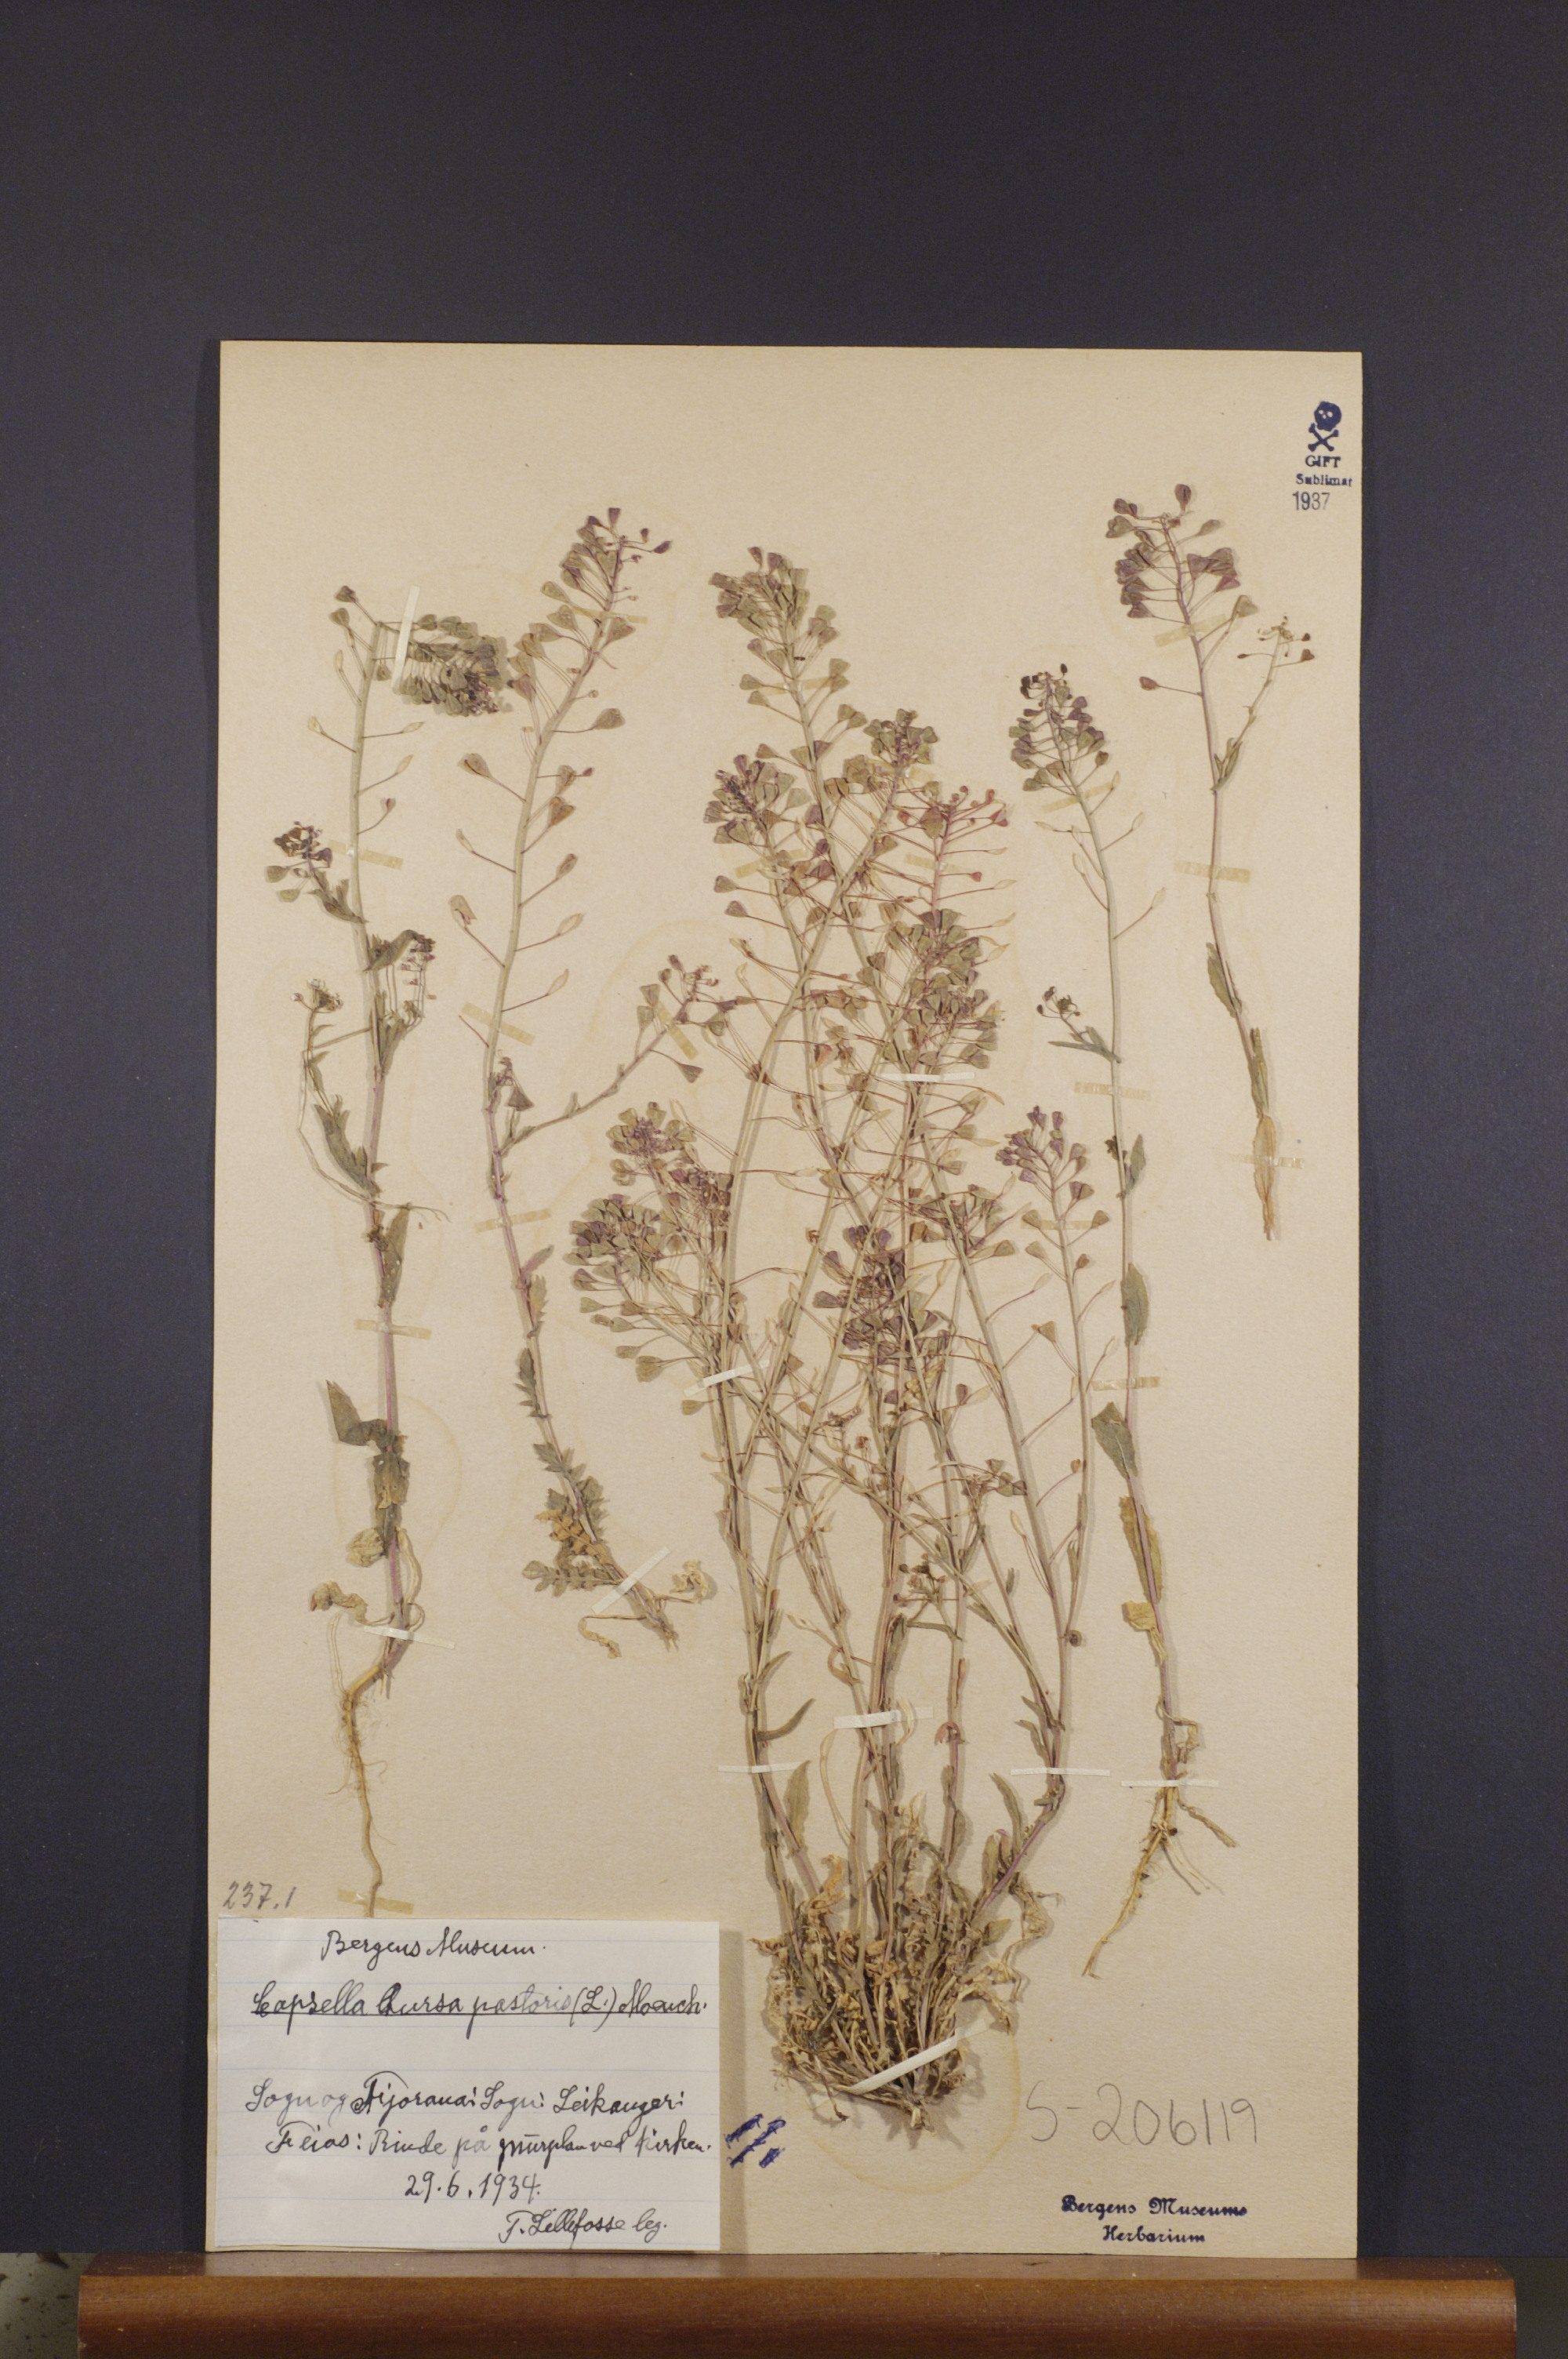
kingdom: Plantae
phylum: Tracheophyta
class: Magnoliopsida
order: Brassicales
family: Brassicaceae
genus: Capsella
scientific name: Capsella bursa-pastoris
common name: Shepherd's purse
